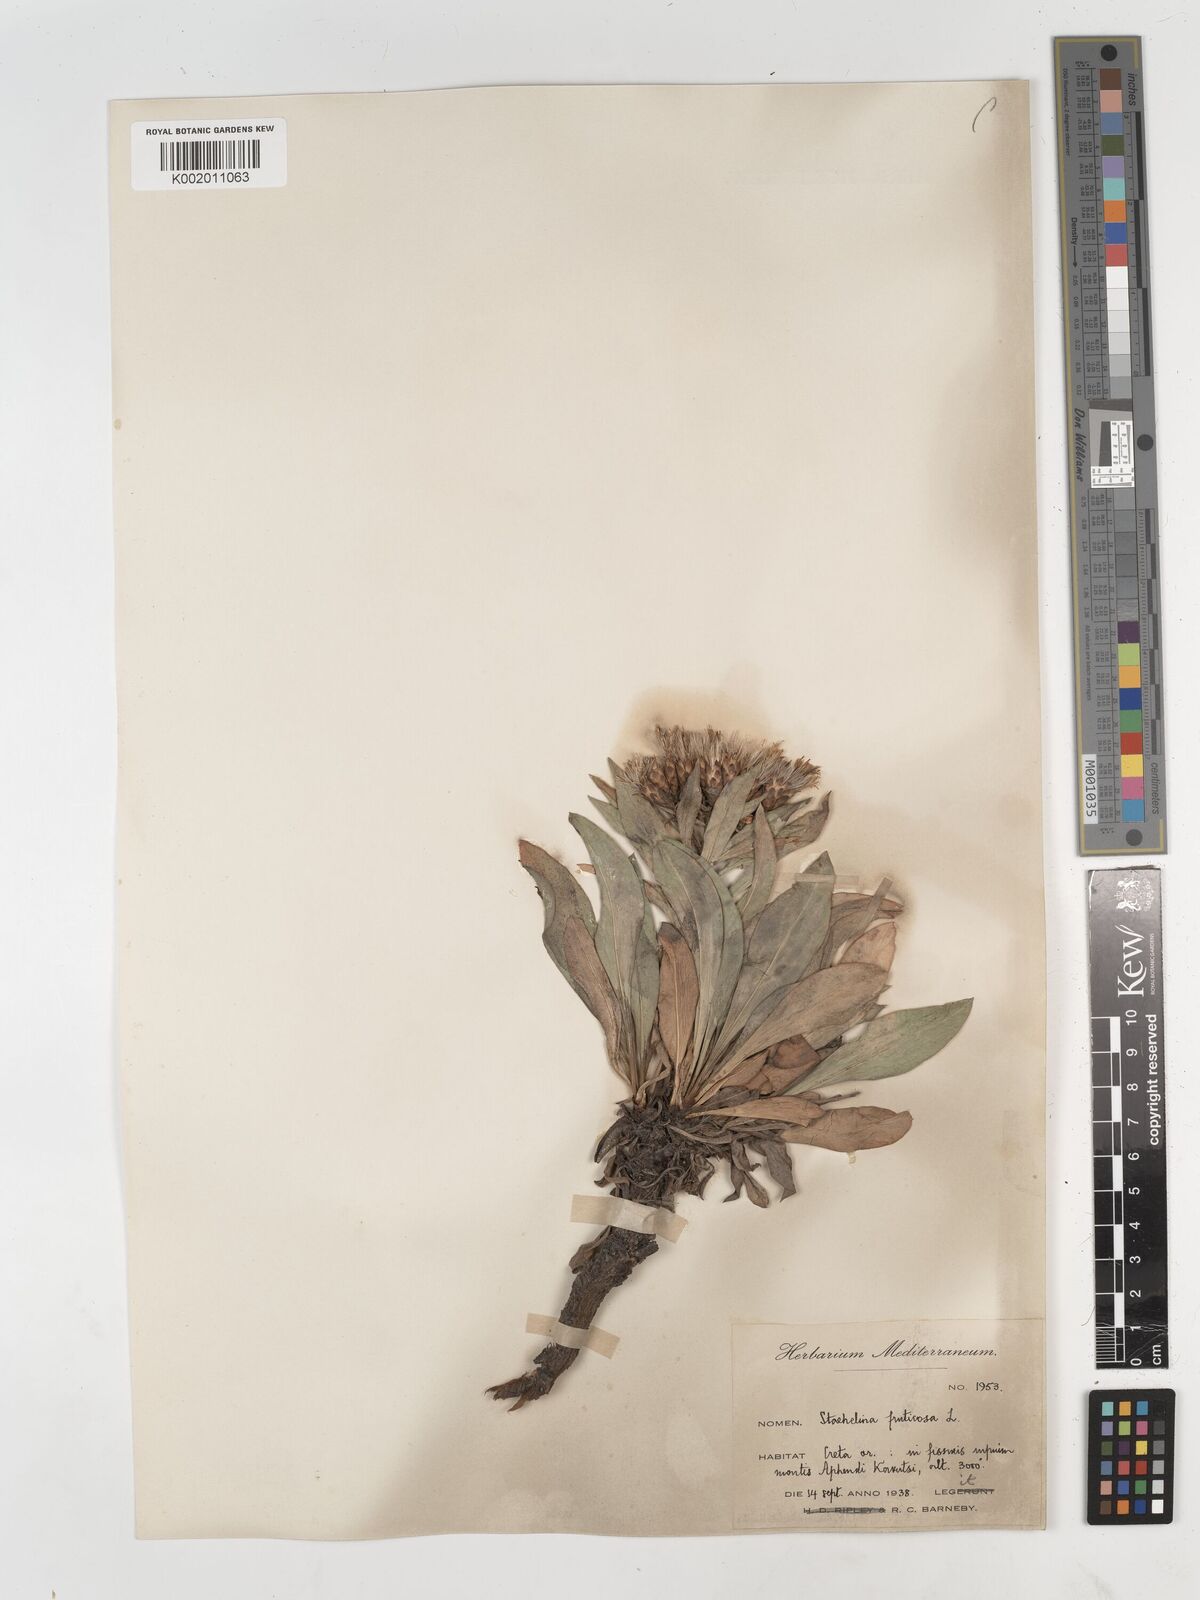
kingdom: Plantae
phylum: Tracheophyta
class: Magnoliopsida
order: Asterales
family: Asteraceae
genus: Hirtellina
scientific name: Hirtellina fruticosa
